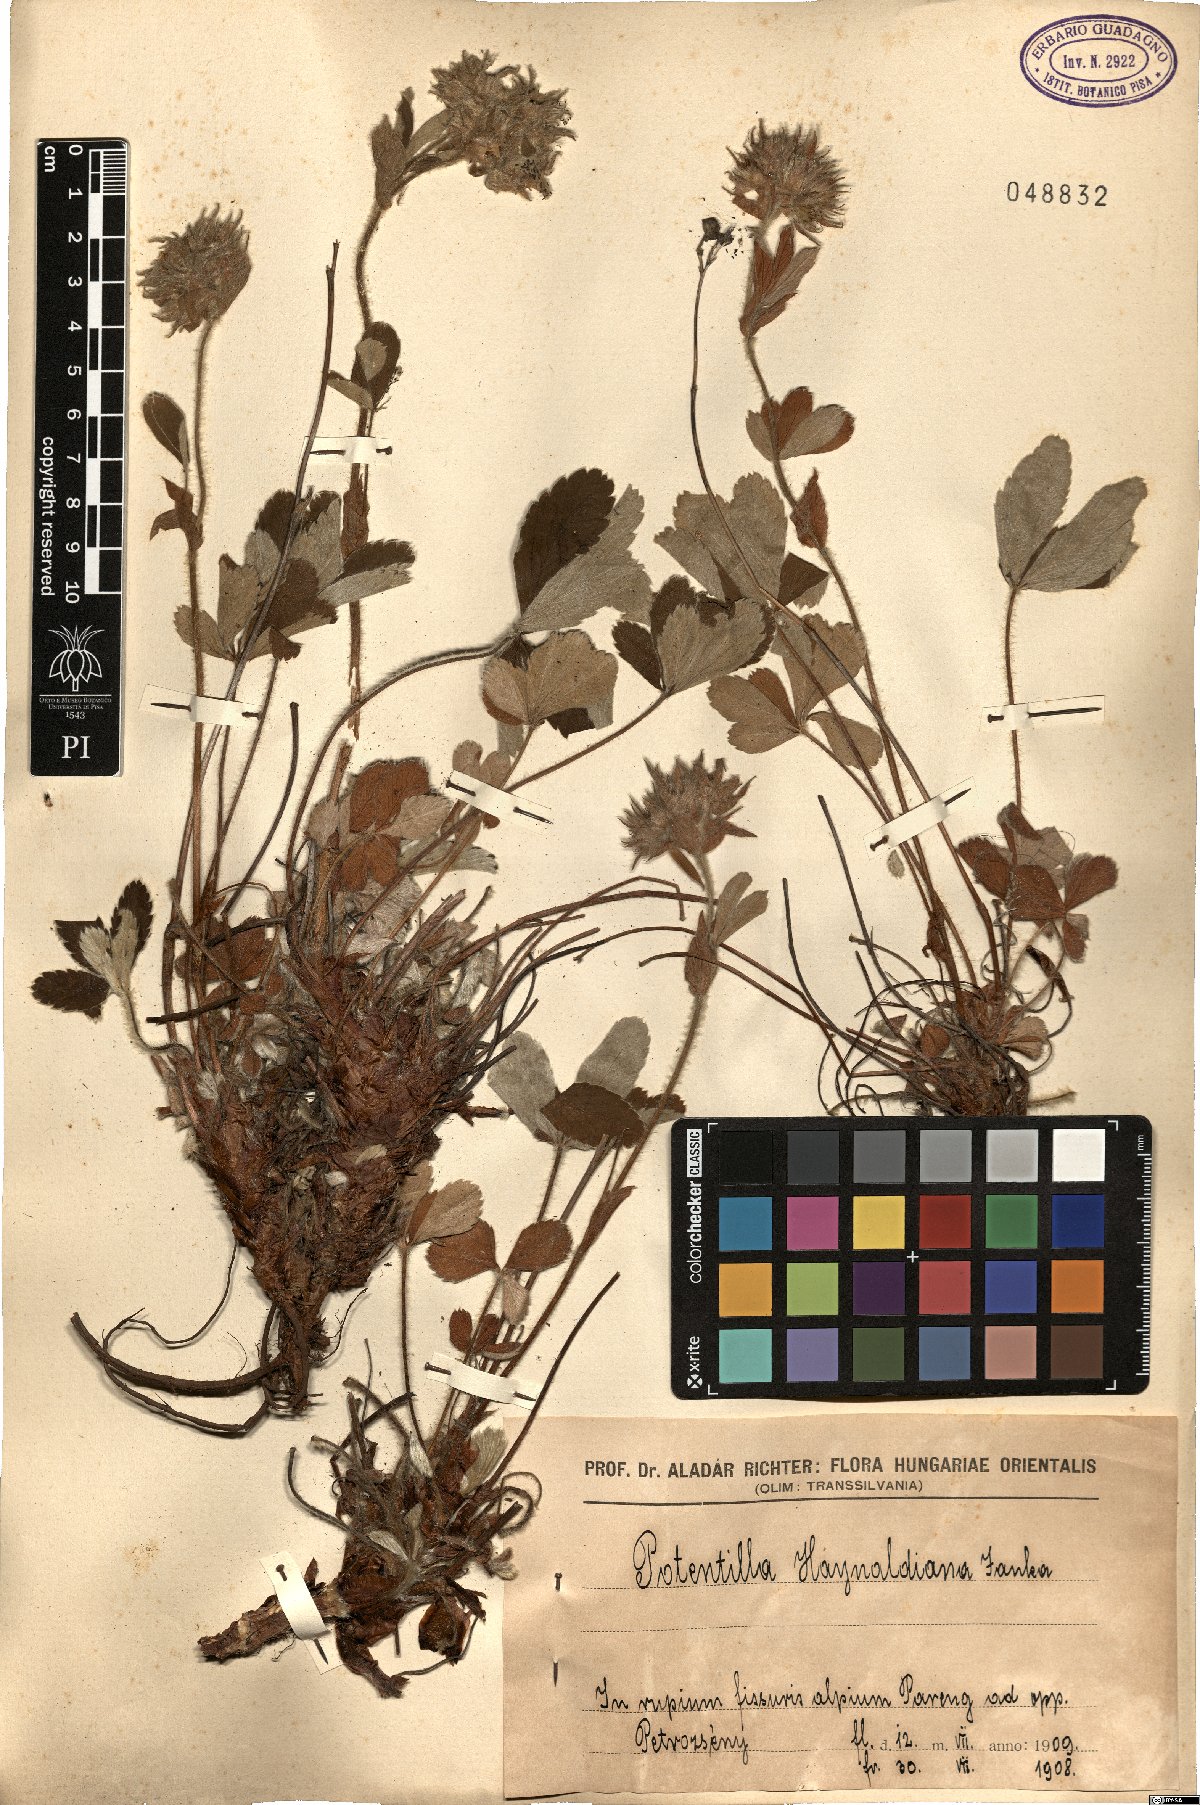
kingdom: Plantae
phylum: Tracheophyta
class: Magnoliopsida
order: Rosales
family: Rosaceae
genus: Potentilla
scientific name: Potentilla haynaldiana
